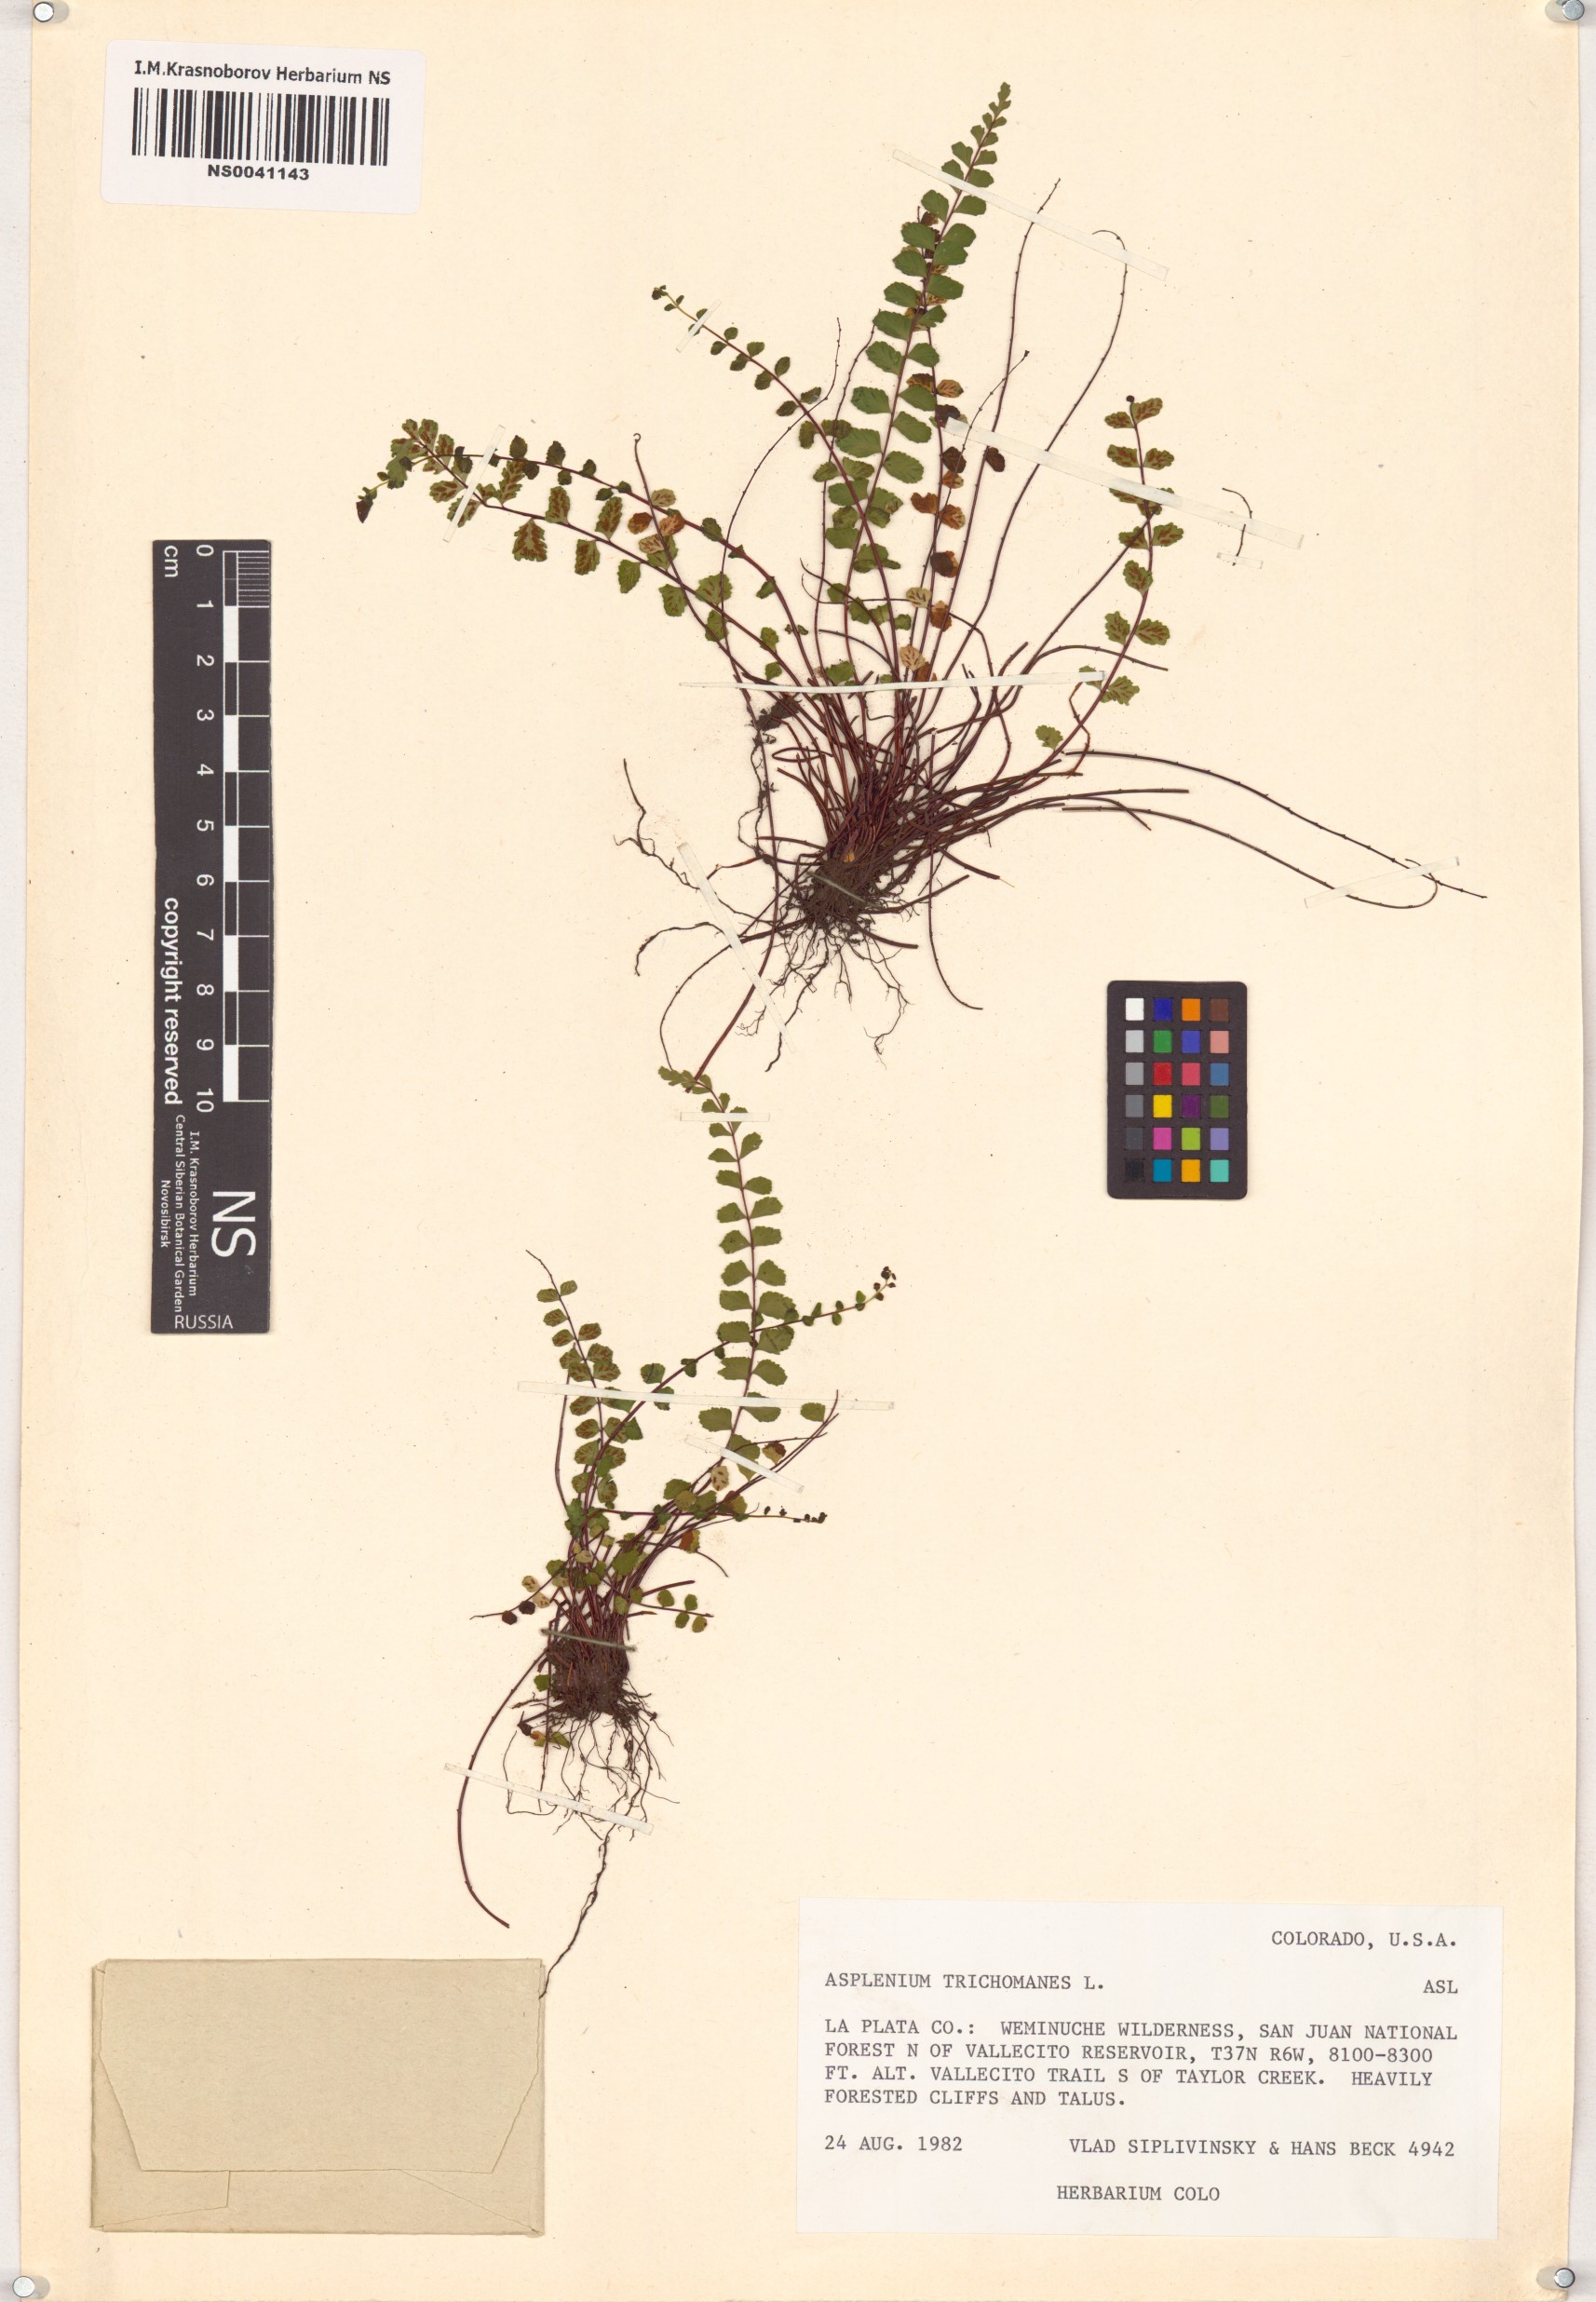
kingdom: Plantae
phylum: Tracheophyta
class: Polypodiopsida
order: Polypodiales
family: Aspleniaceae
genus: Asplenium
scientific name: Asplenium trichomanes
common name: Maidenhair spleenwort
